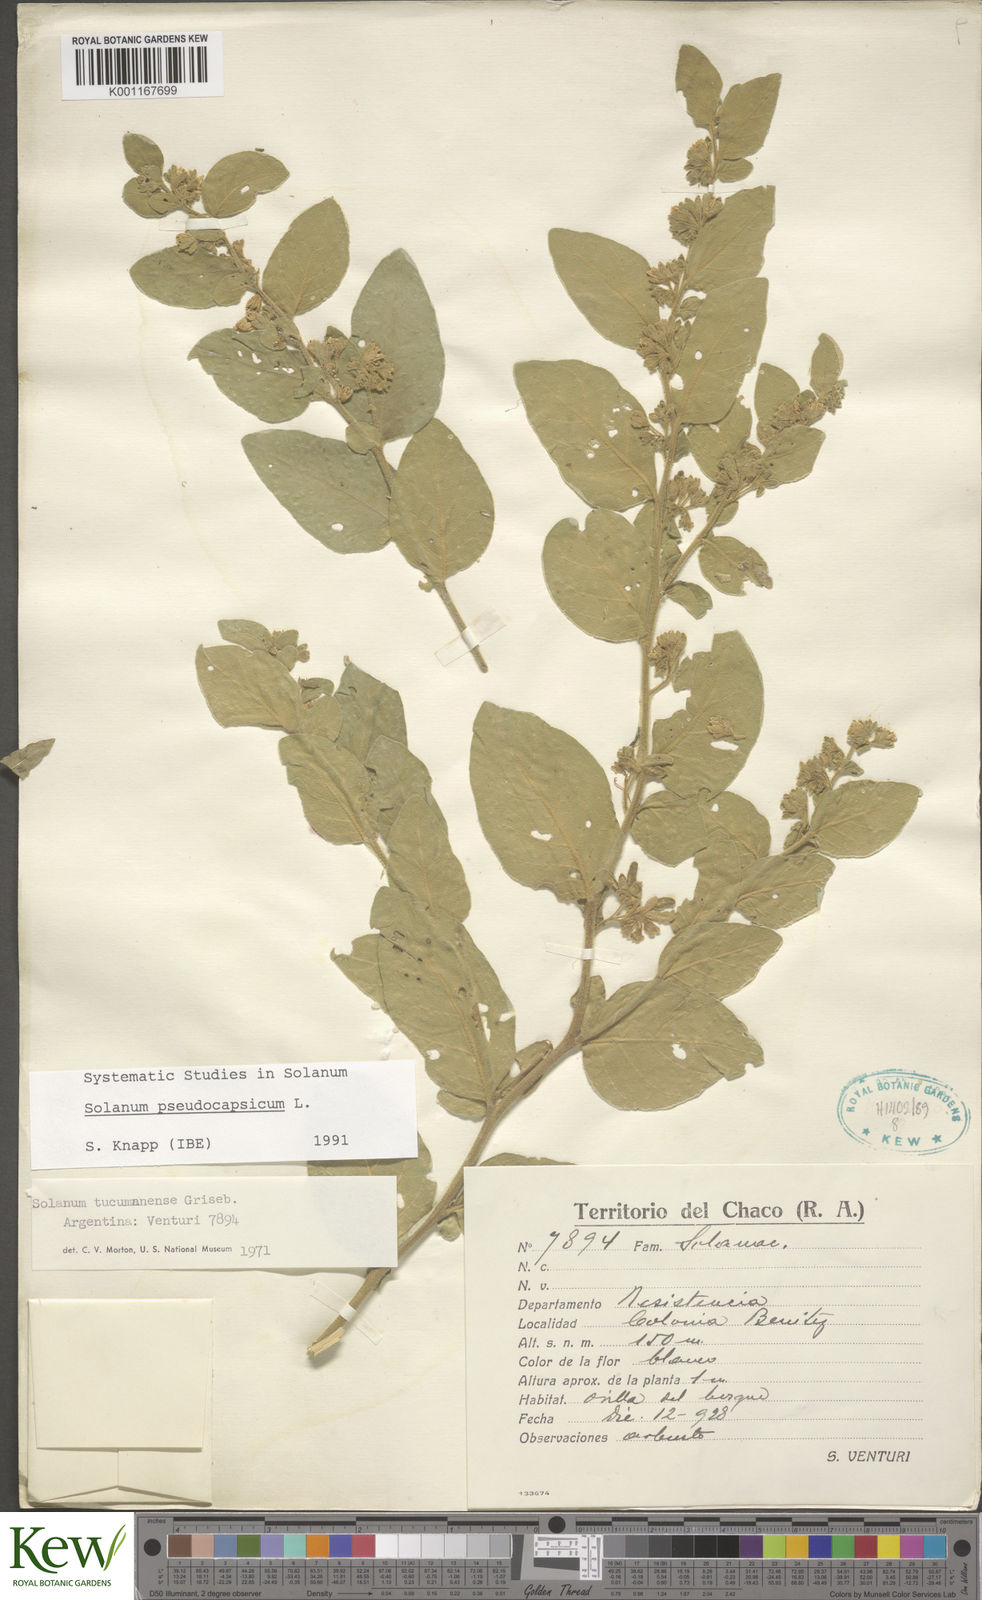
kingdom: Plantae
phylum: Tracheophyta
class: Magnoliopsida
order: Solanales
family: Solanaceae
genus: Solanum
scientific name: Solanum pseudocapsicum
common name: Jerusalem cherry
